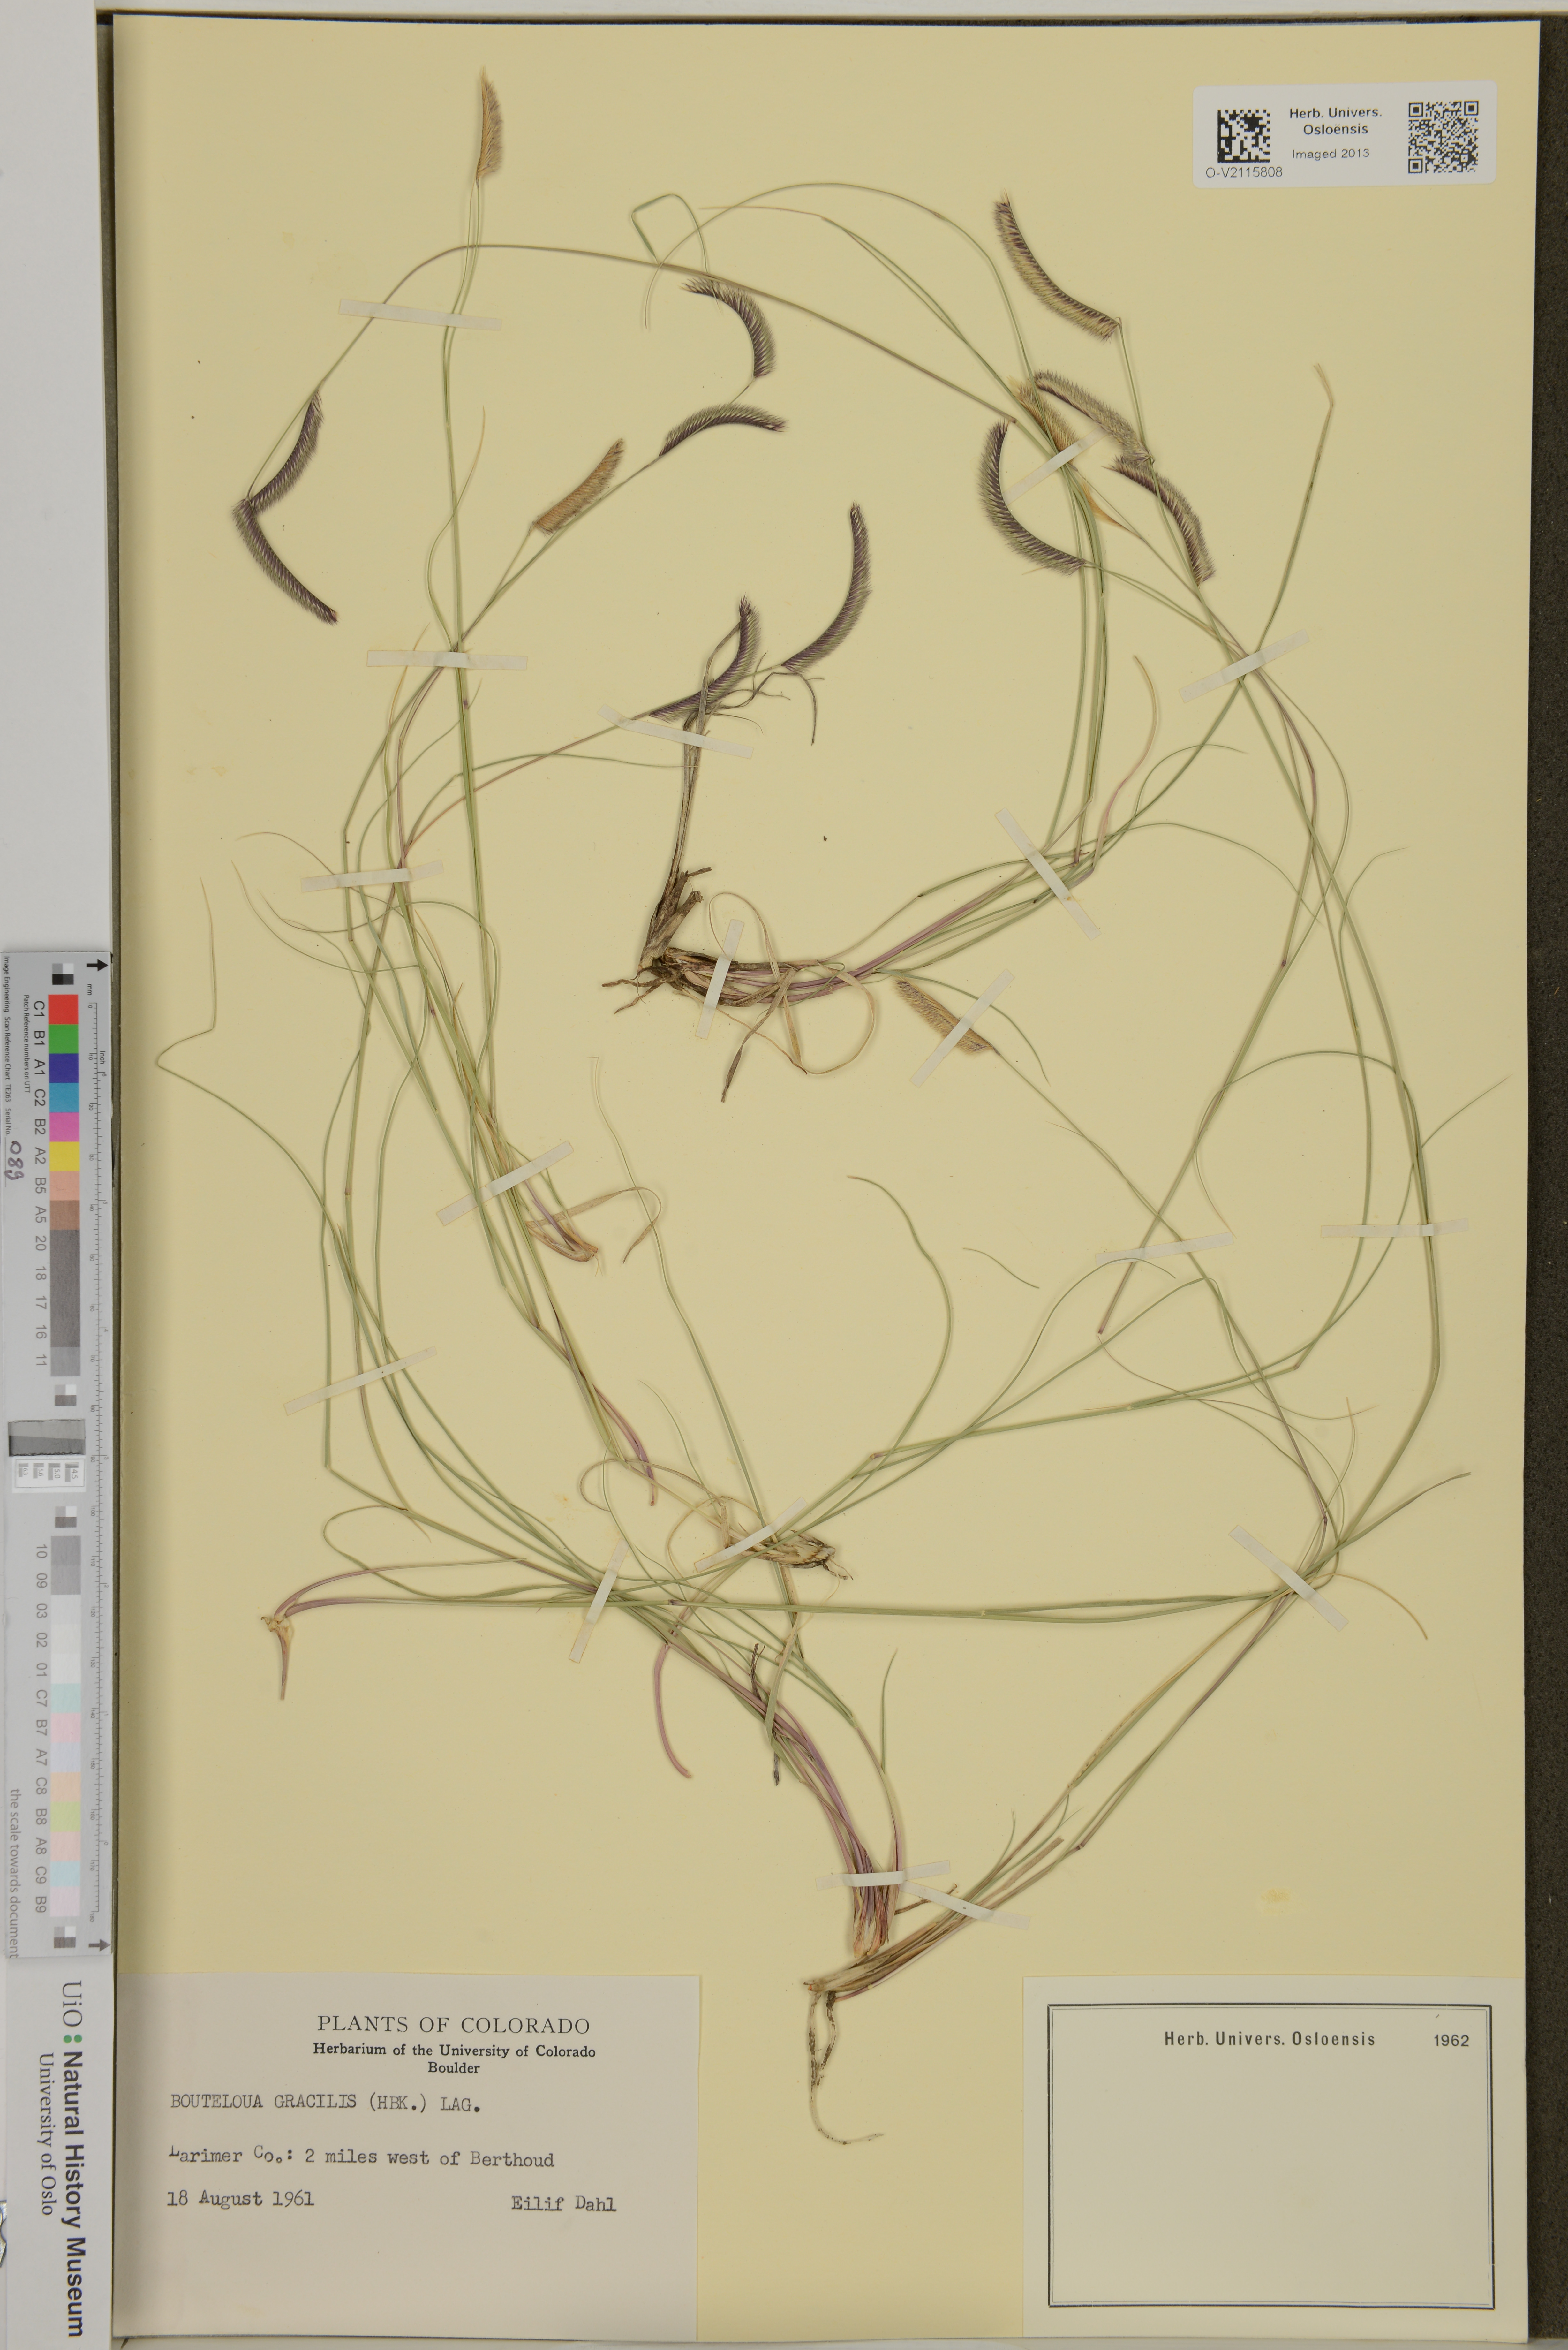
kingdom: Plantae
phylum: Tracheophyta
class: Liliopsida
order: Poales
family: Poaceae
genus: Bouteloua
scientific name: Bouteloua gracilis
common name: Blue grama
